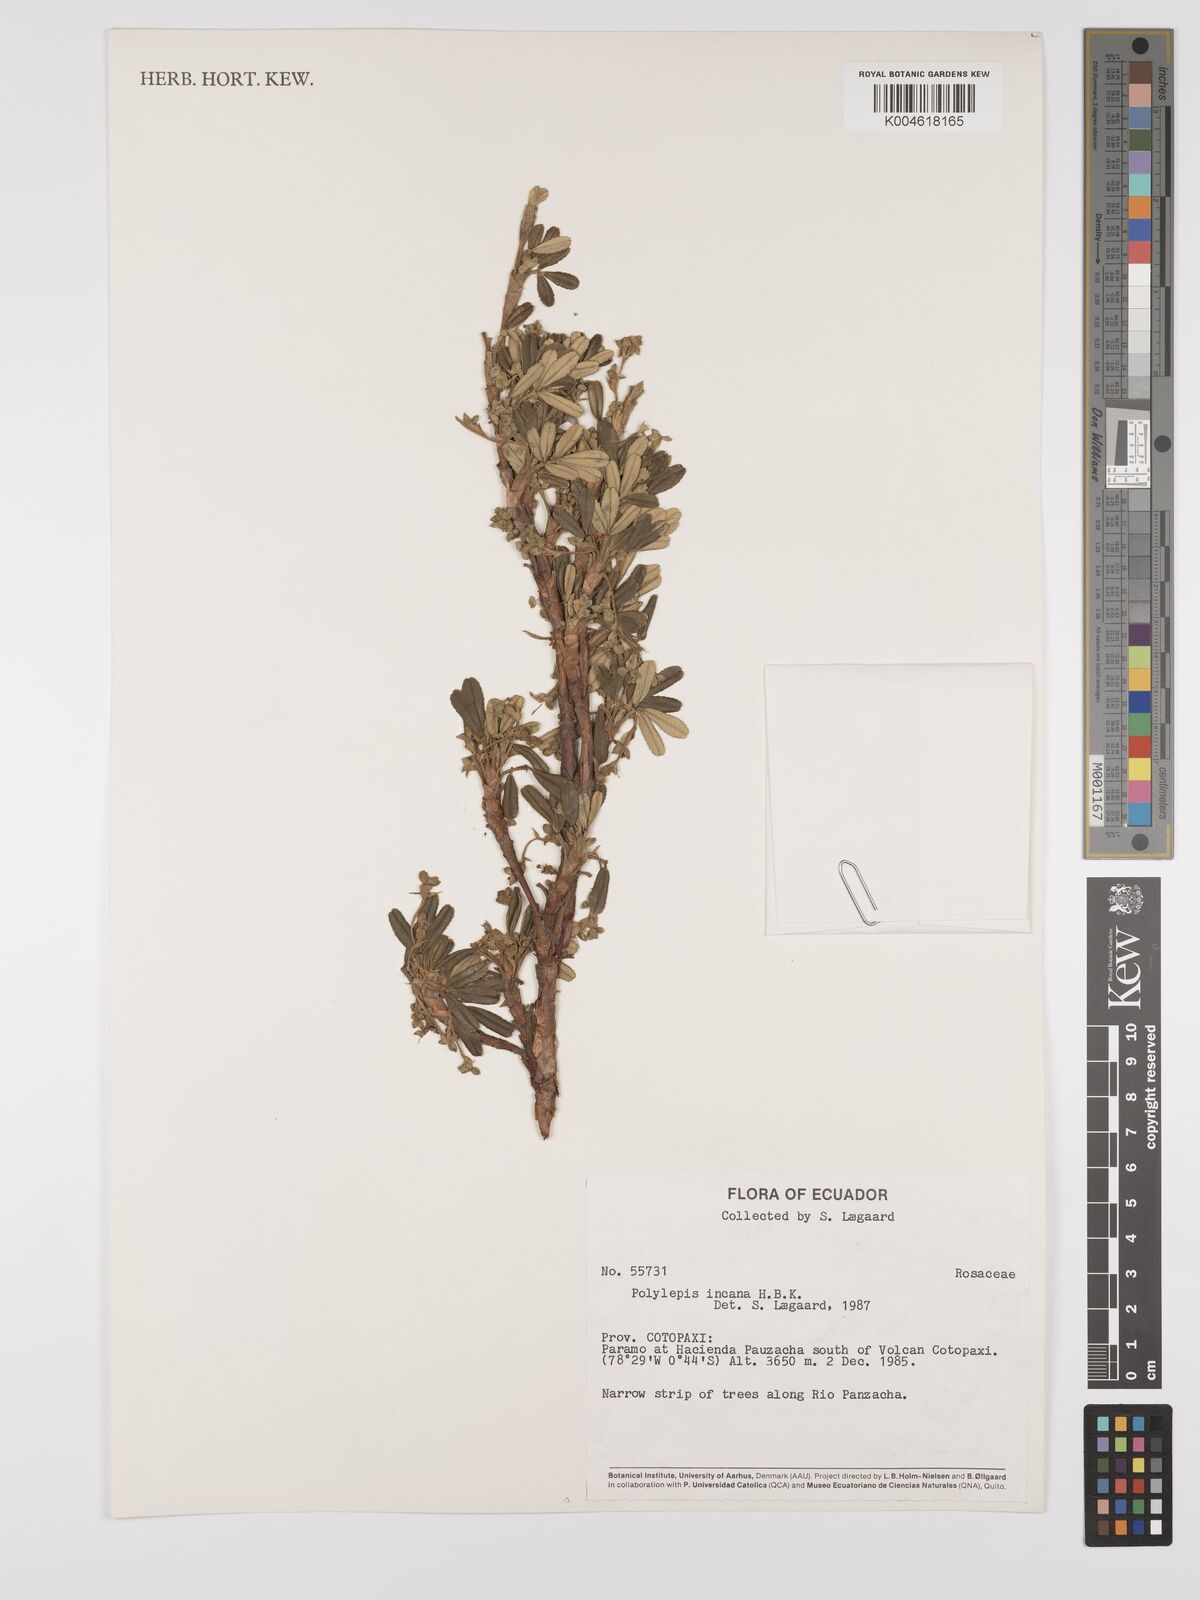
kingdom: Plantae
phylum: Tracheophyta
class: Magnoliopsida
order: Rosales
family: Rosaceae
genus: Polylepis
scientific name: Polylepis incana
